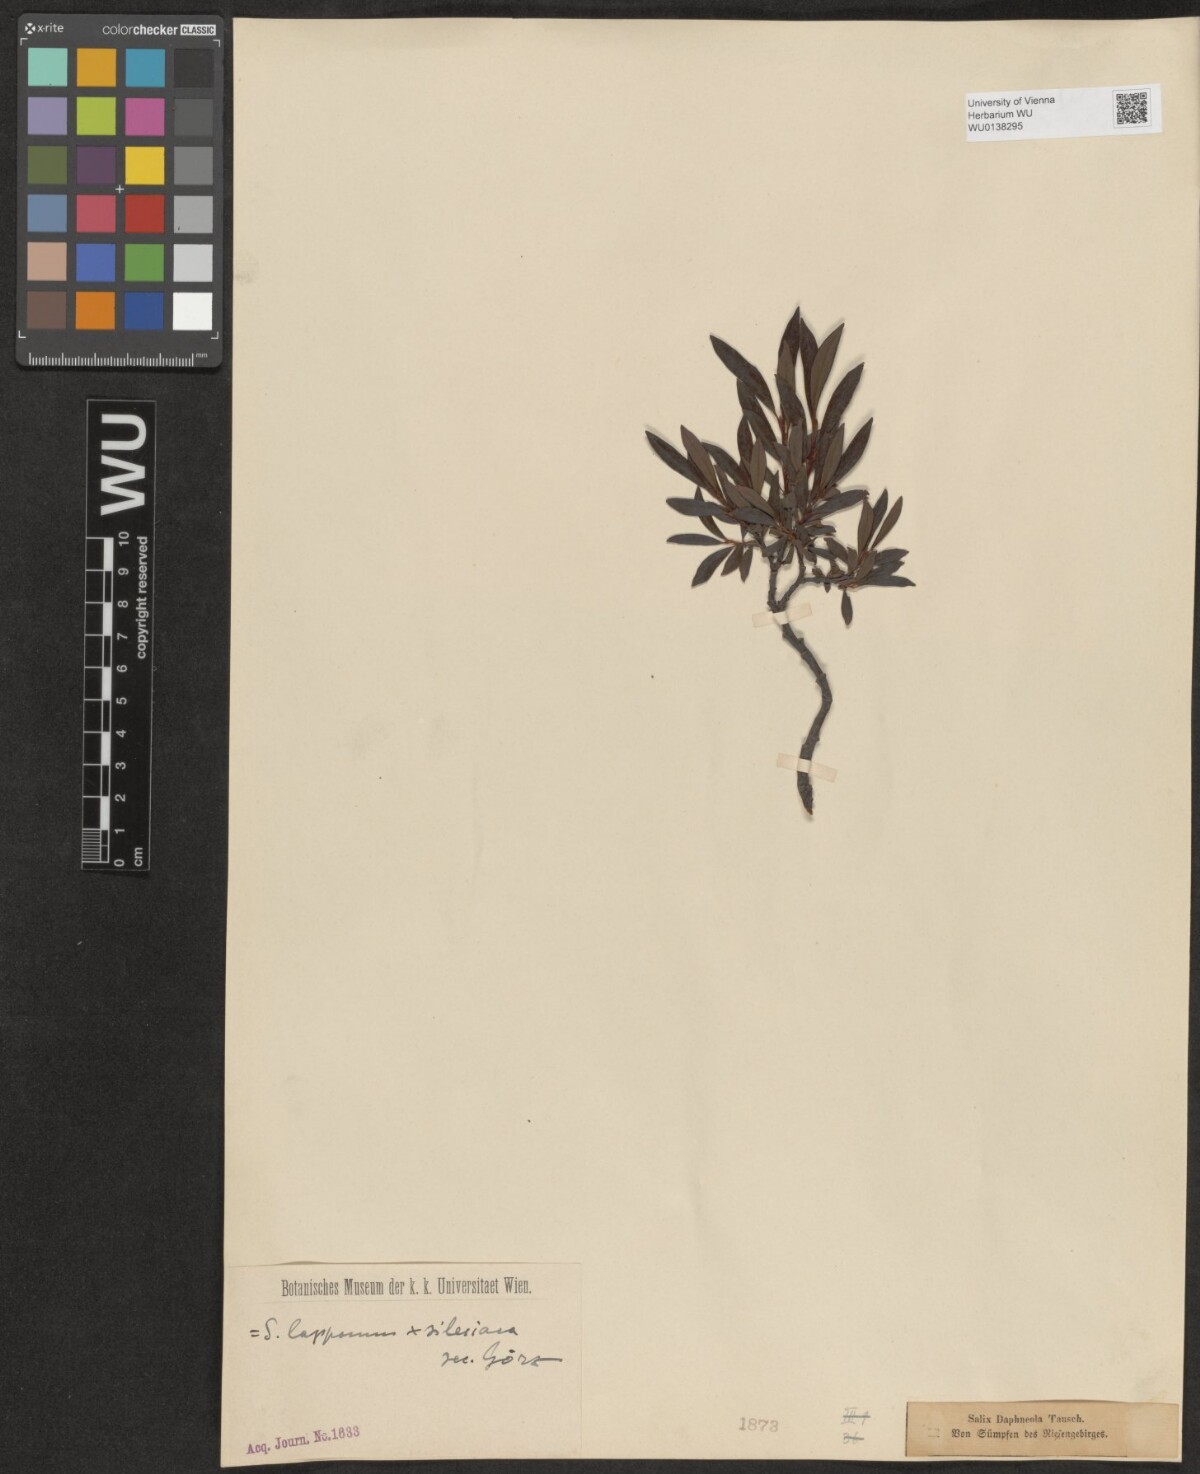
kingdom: Plantae
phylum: Tracheophyta
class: Magnoliopsida
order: Malpighiales
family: Salicaceae
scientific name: Salicaceae
